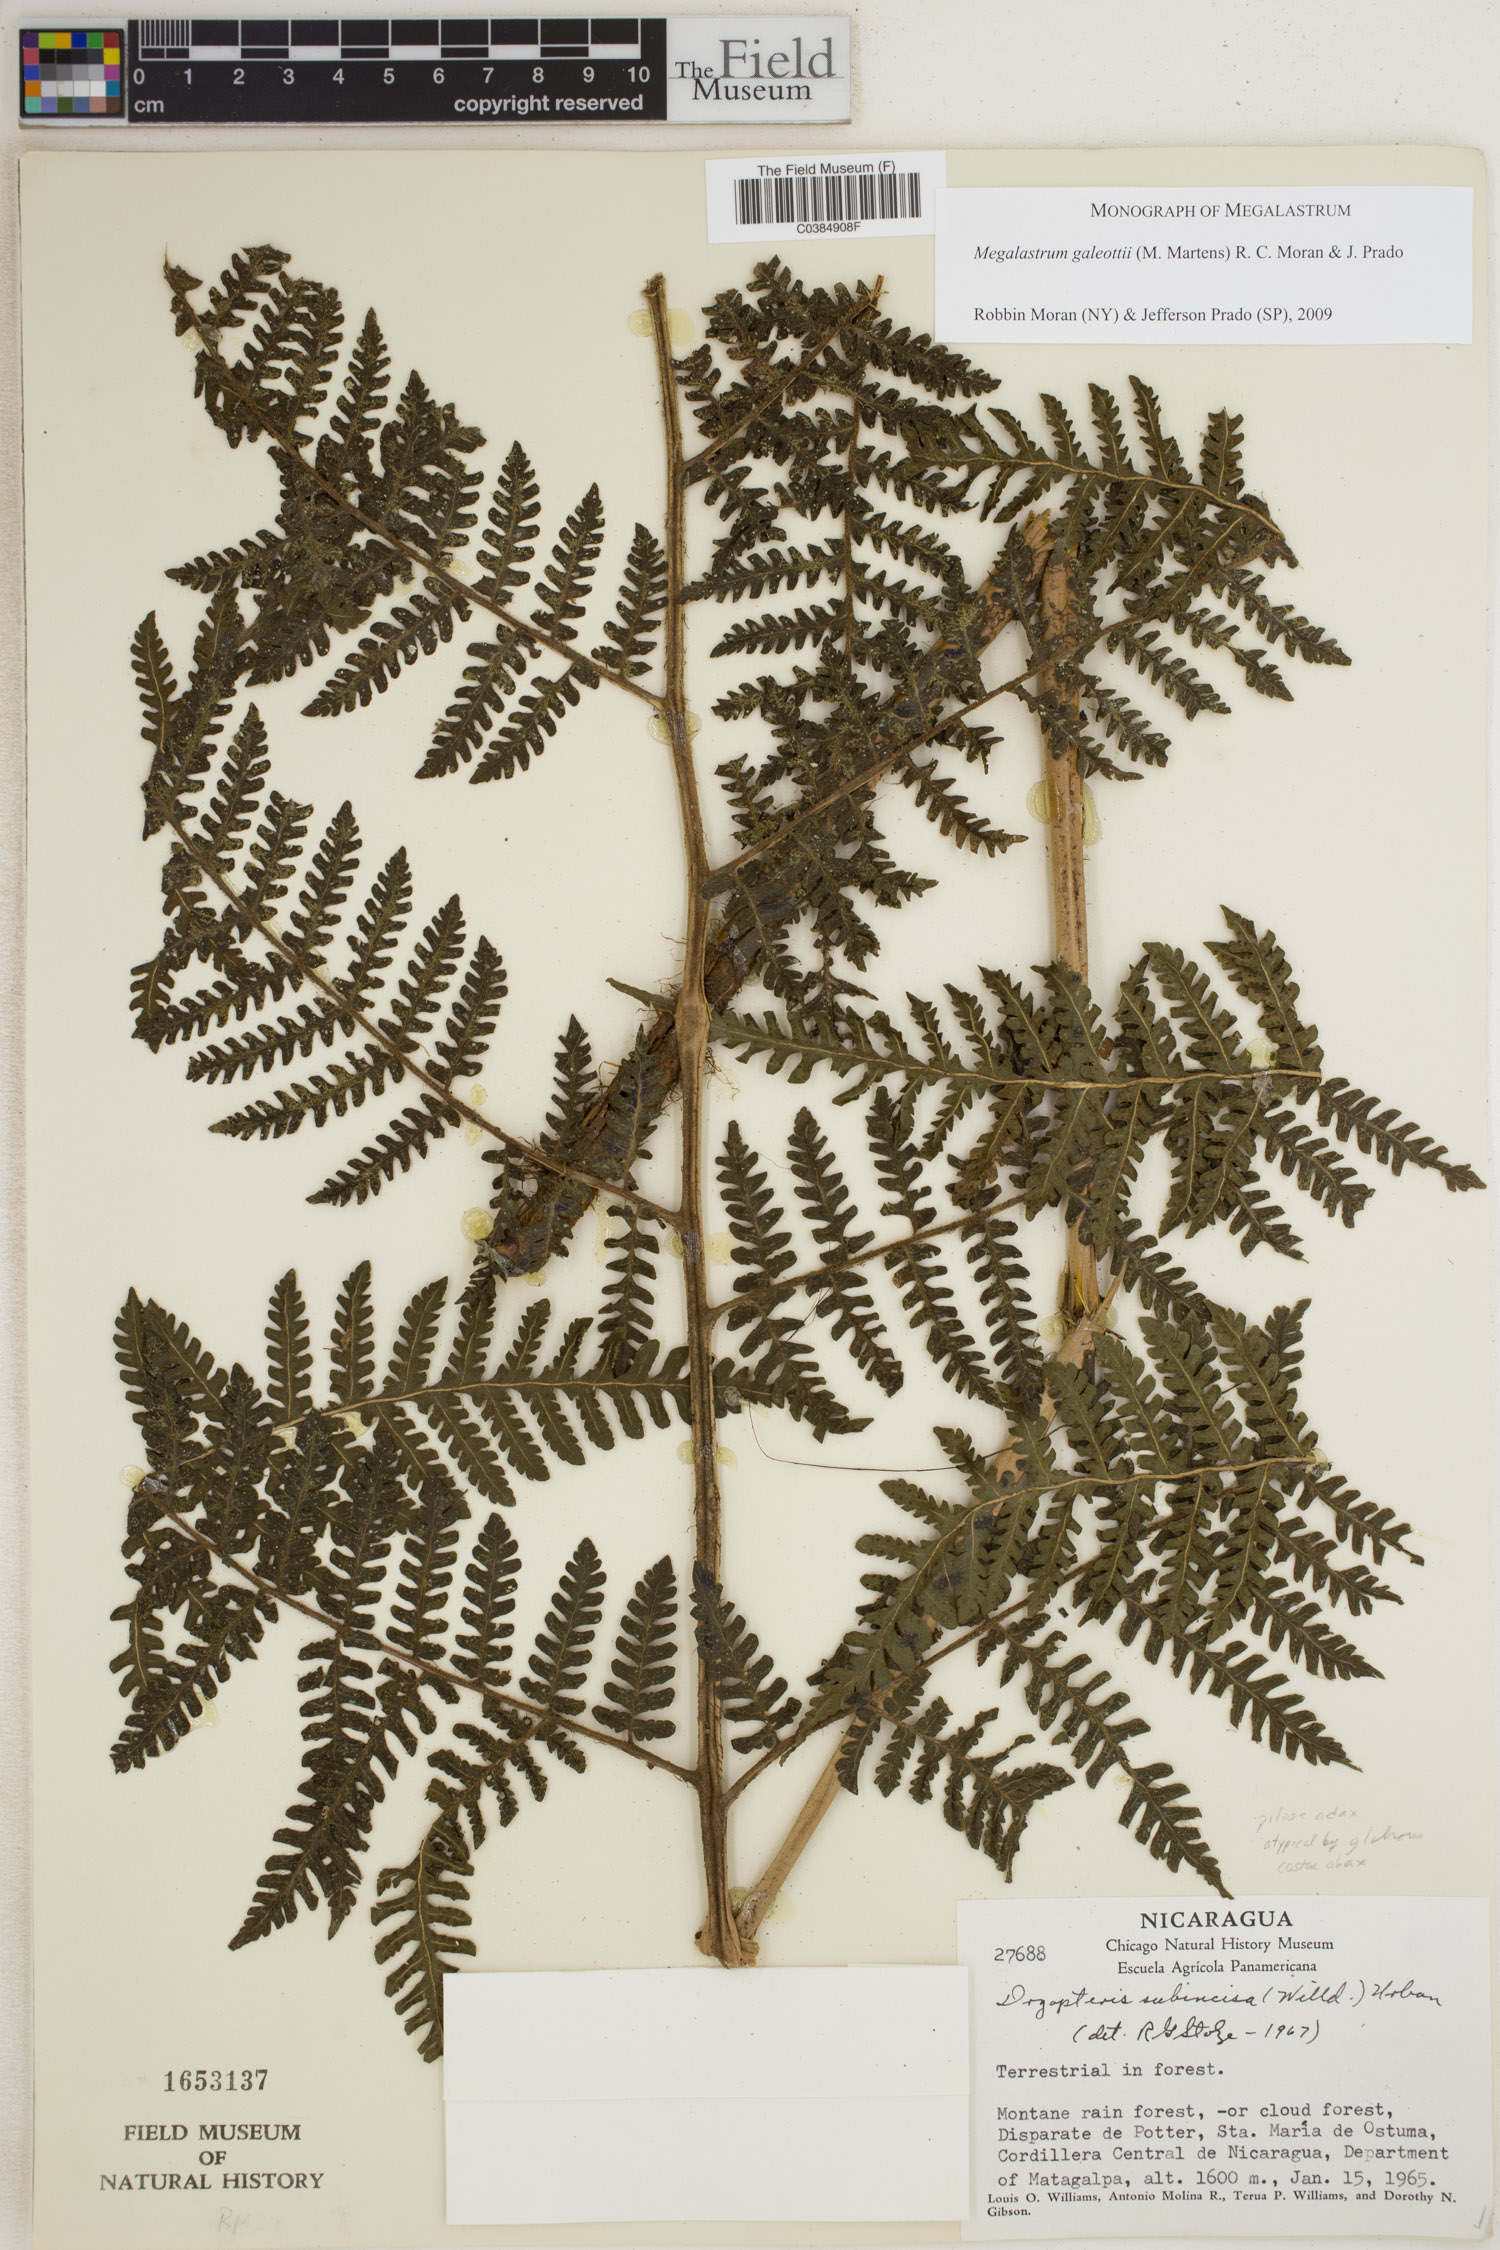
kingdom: Plantae
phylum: Tracheophyta
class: Polypodiopsida
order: Polypodiales
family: Dryopteridaceae
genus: Megalastrum
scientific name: Megalastrum galeottii
